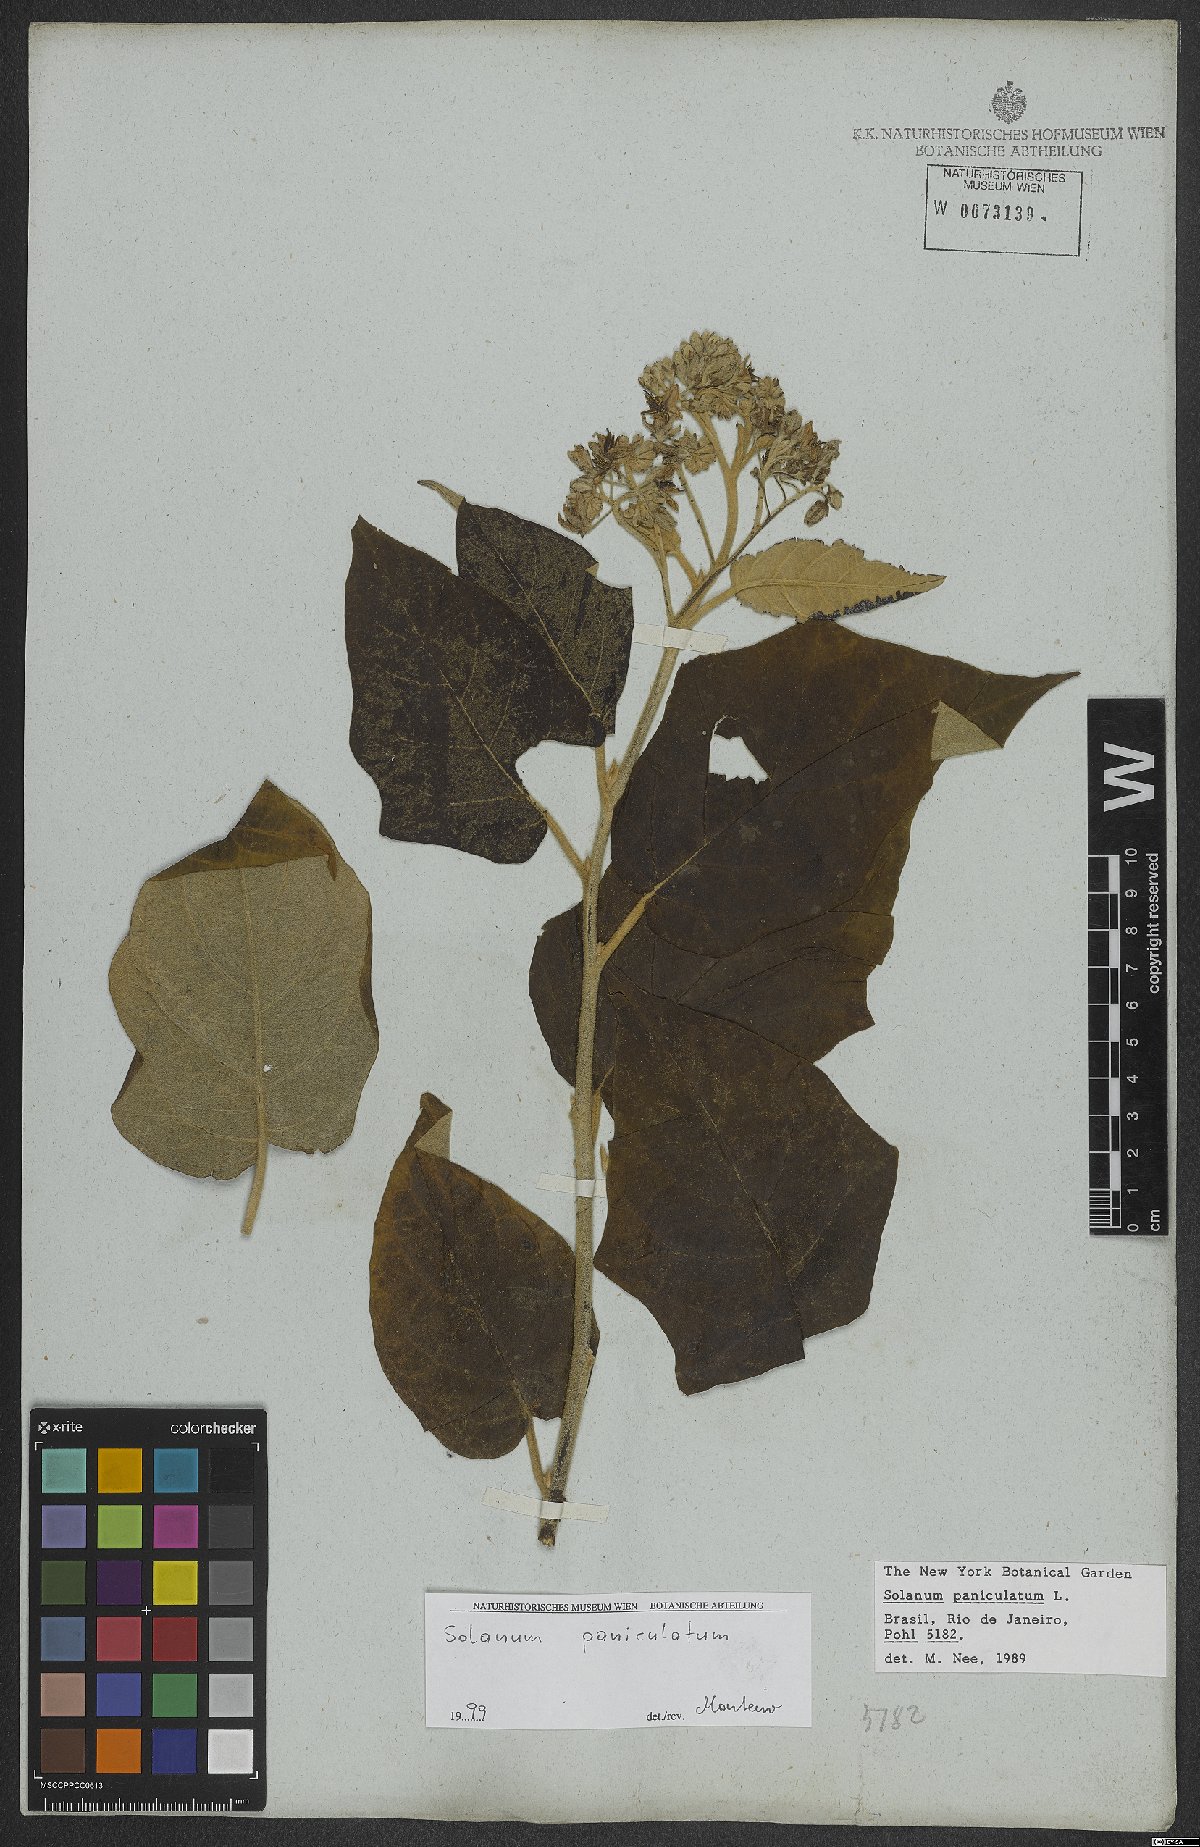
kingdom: Plantae
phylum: Tracheophyta
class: Magnoliopsida
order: Solanales
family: Solanaceae
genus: Solanum
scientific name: Solanum paniculatum
